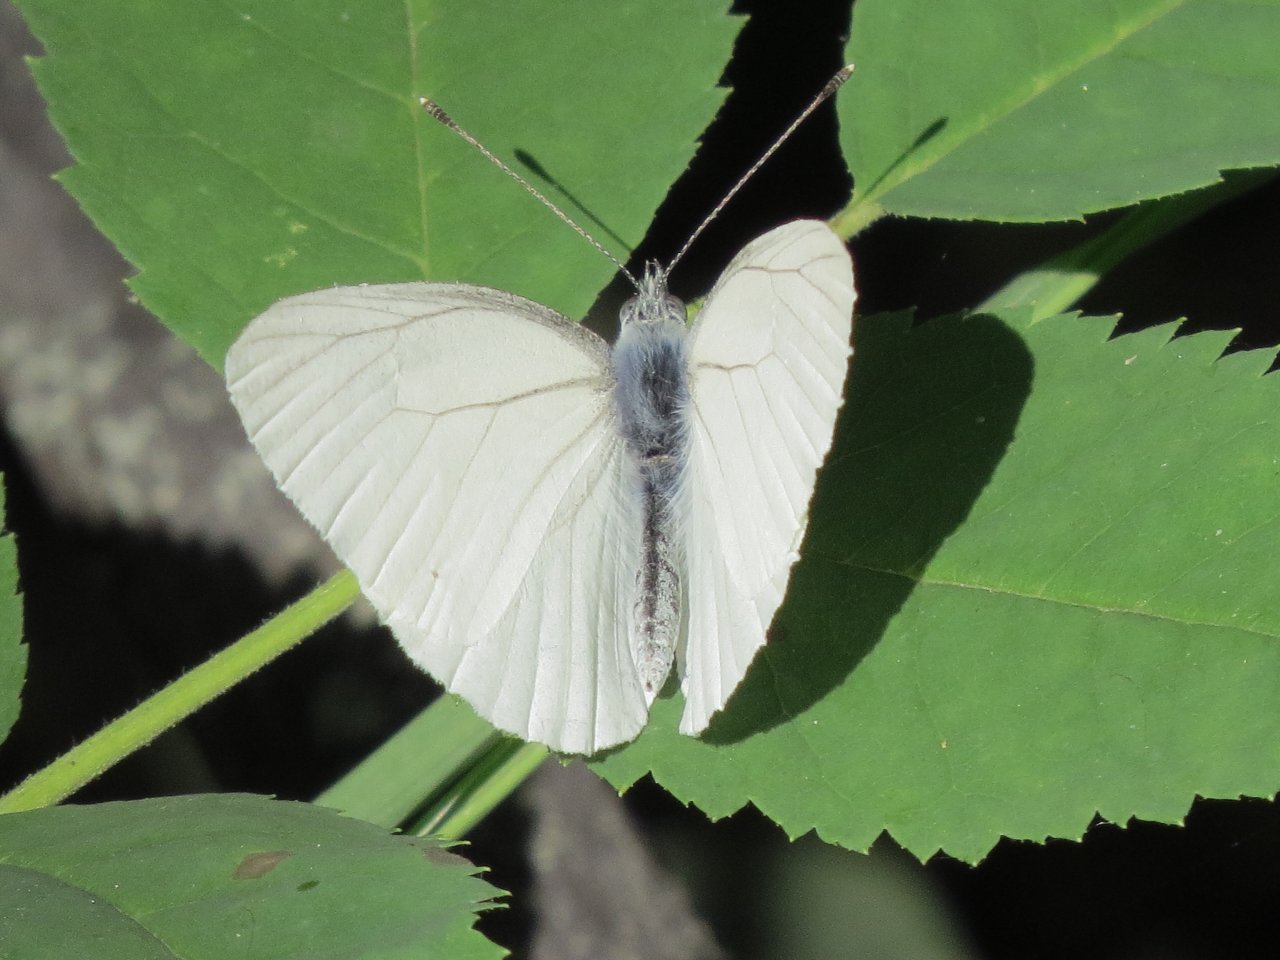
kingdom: Animalia
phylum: Arthropoda
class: Insecta
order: Lepidoptera
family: Pieridae
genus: Pieris
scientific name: Pieris oleracea
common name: Mustard White
